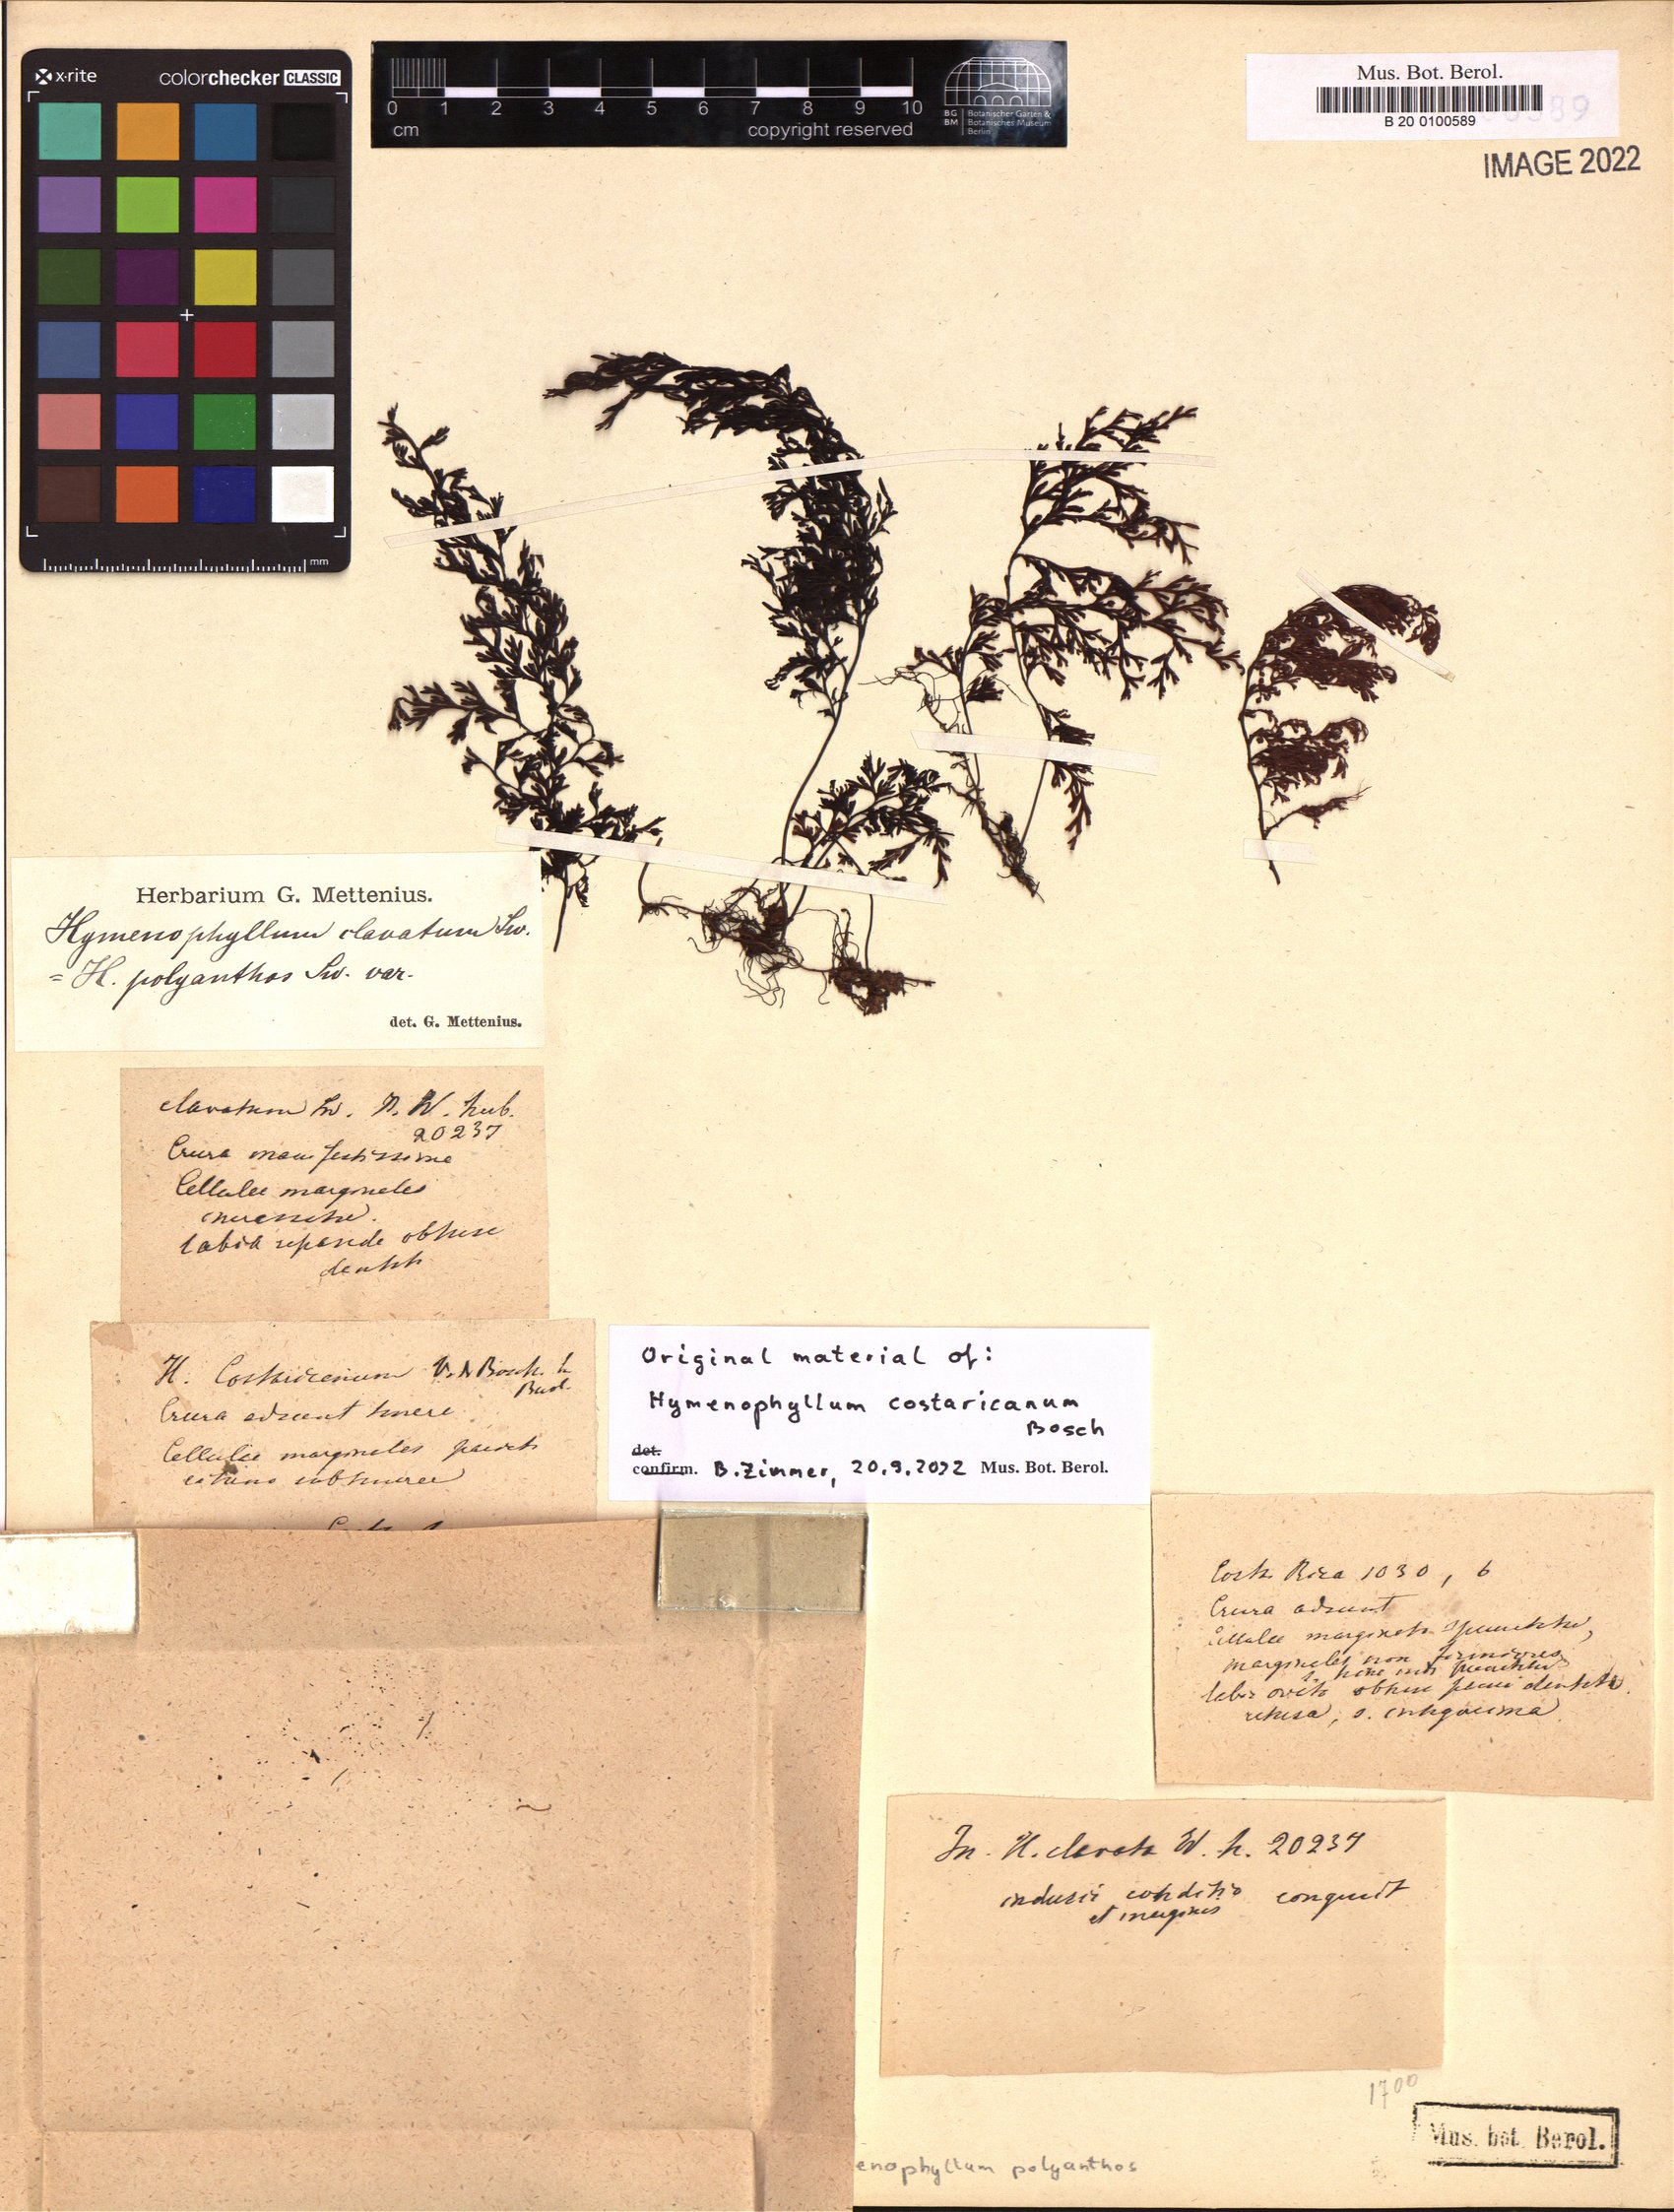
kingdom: Plantae
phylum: Tracheophyta
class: Polypodiopsida
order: Hymenophyllales
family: Hymenophyllaceae
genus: Hymenophyllum
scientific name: Hymenophyllum polyanthos
